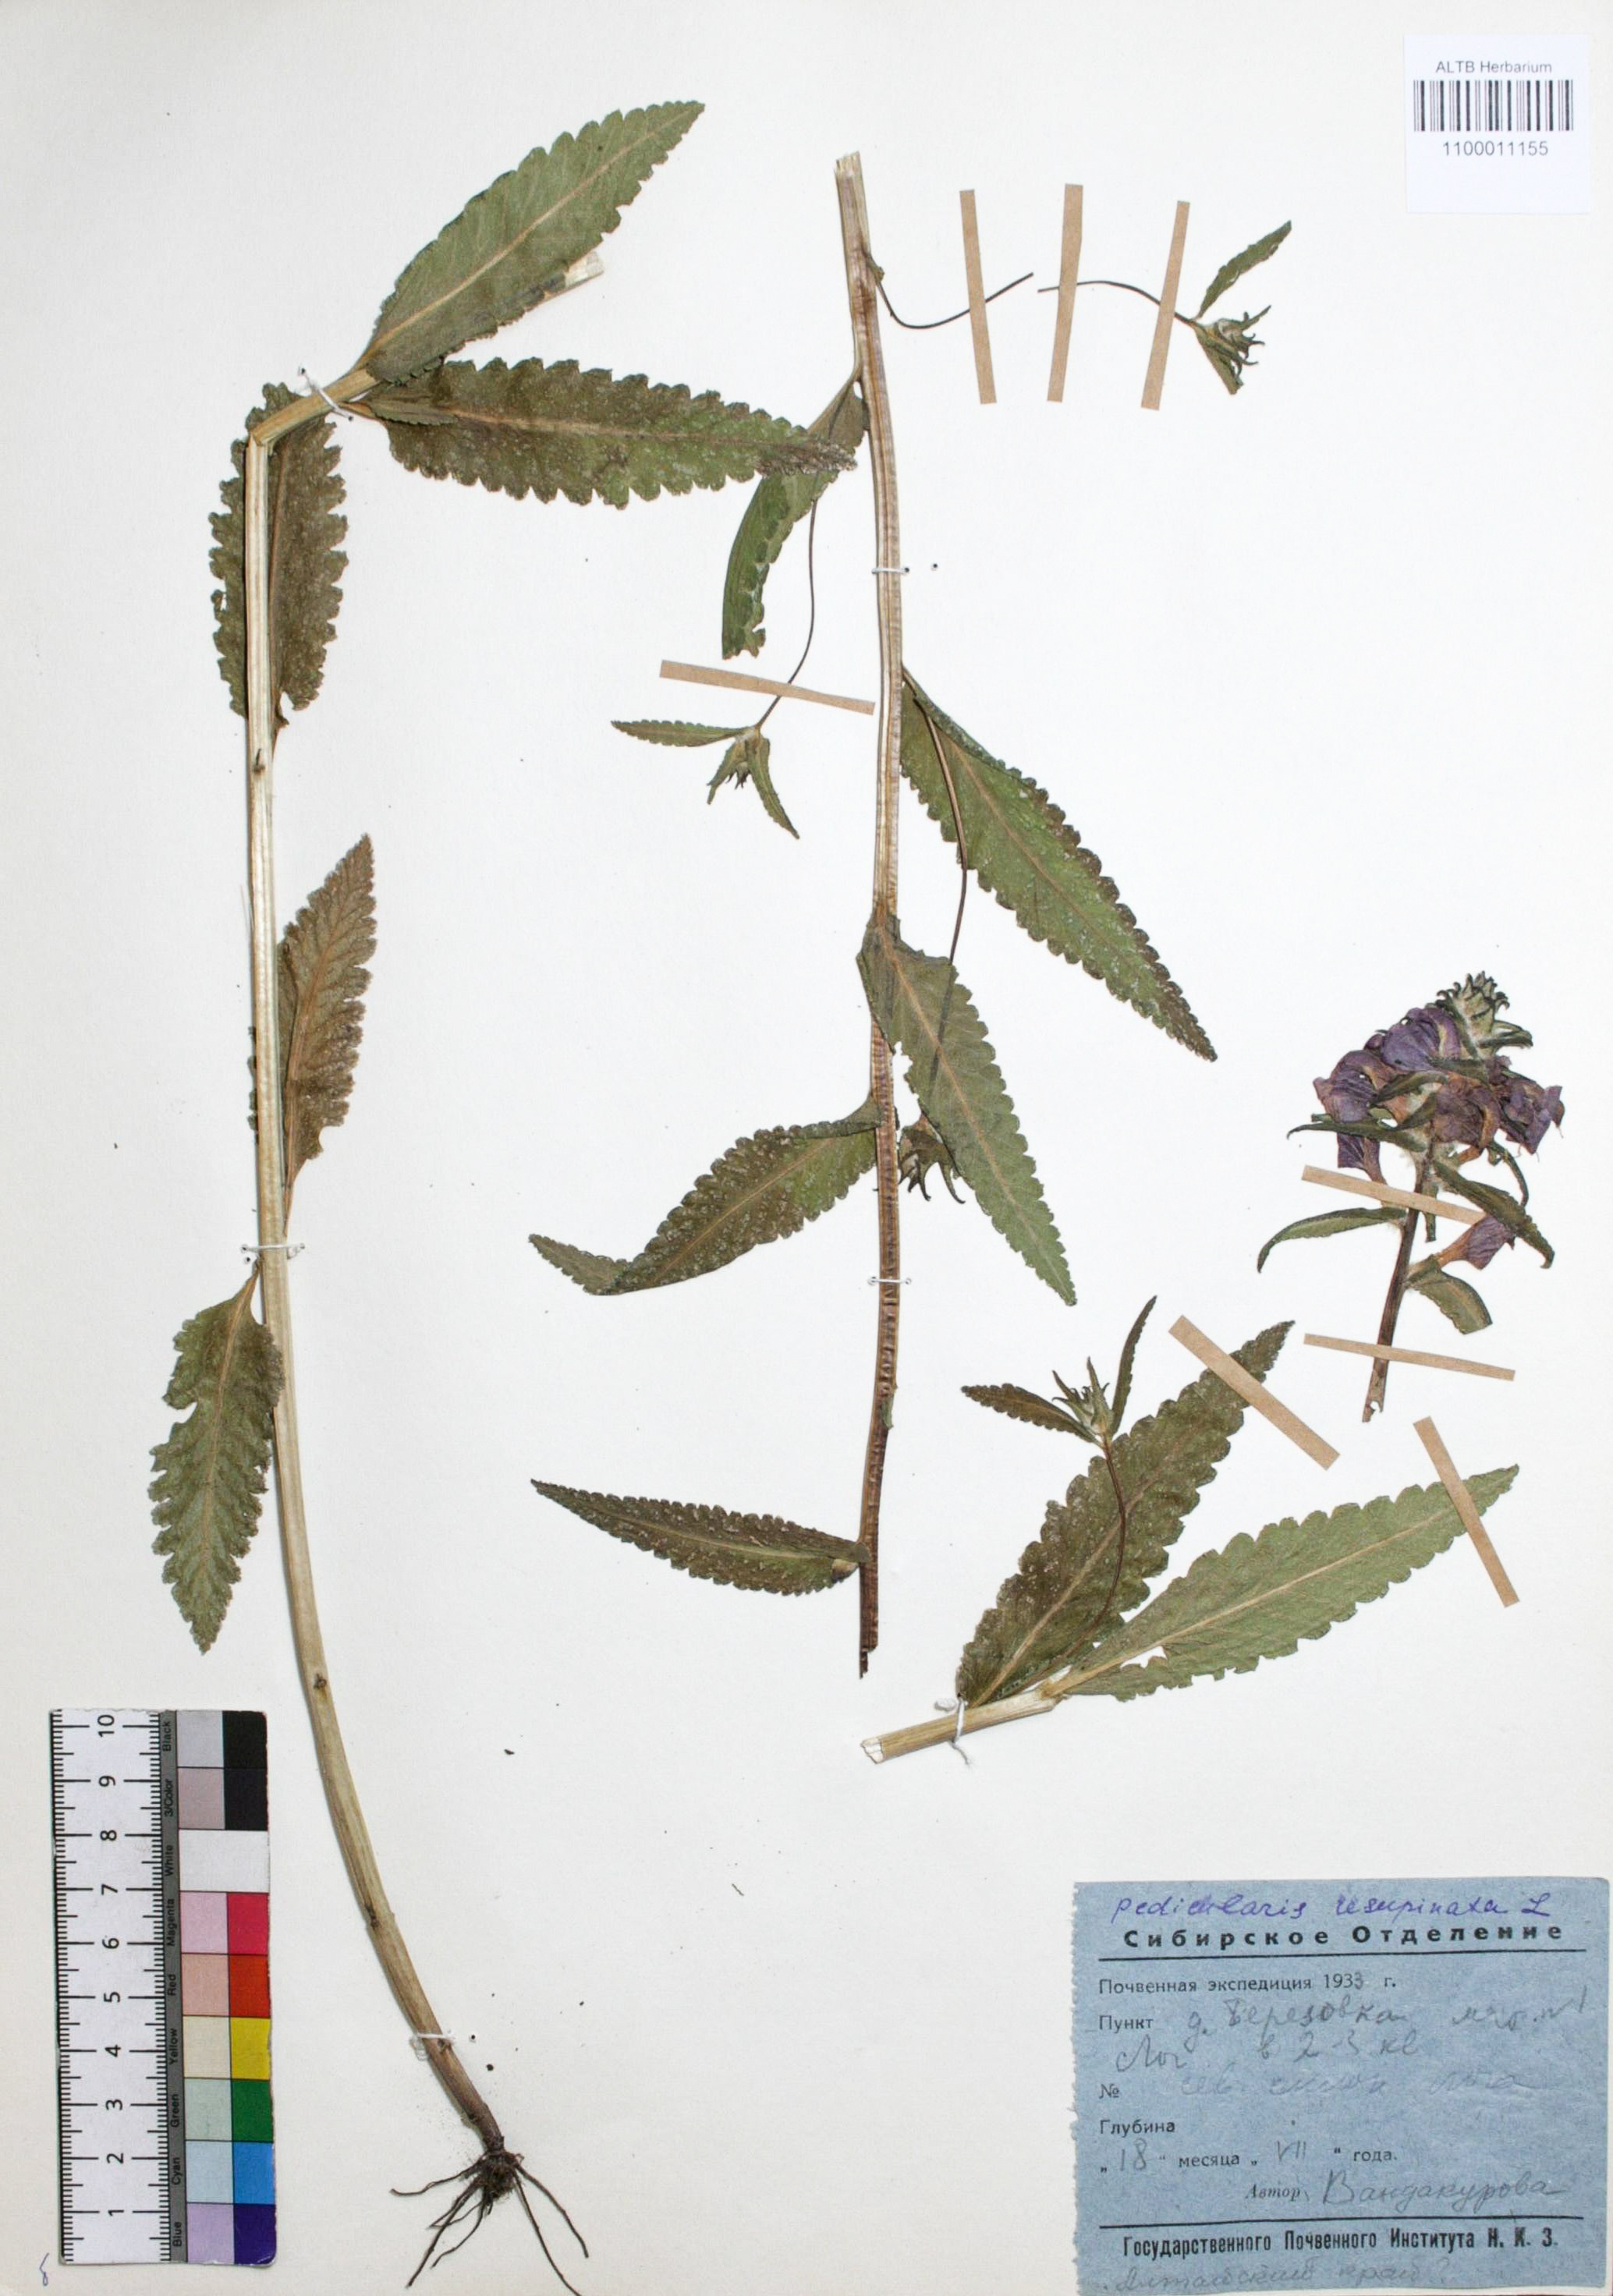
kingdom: Plantae
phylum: Tracheophyta
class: Magnoliopsida
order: Lamiales
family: Orobanchaceae
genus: Pedicularis
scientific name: Pedicularis resupinata
